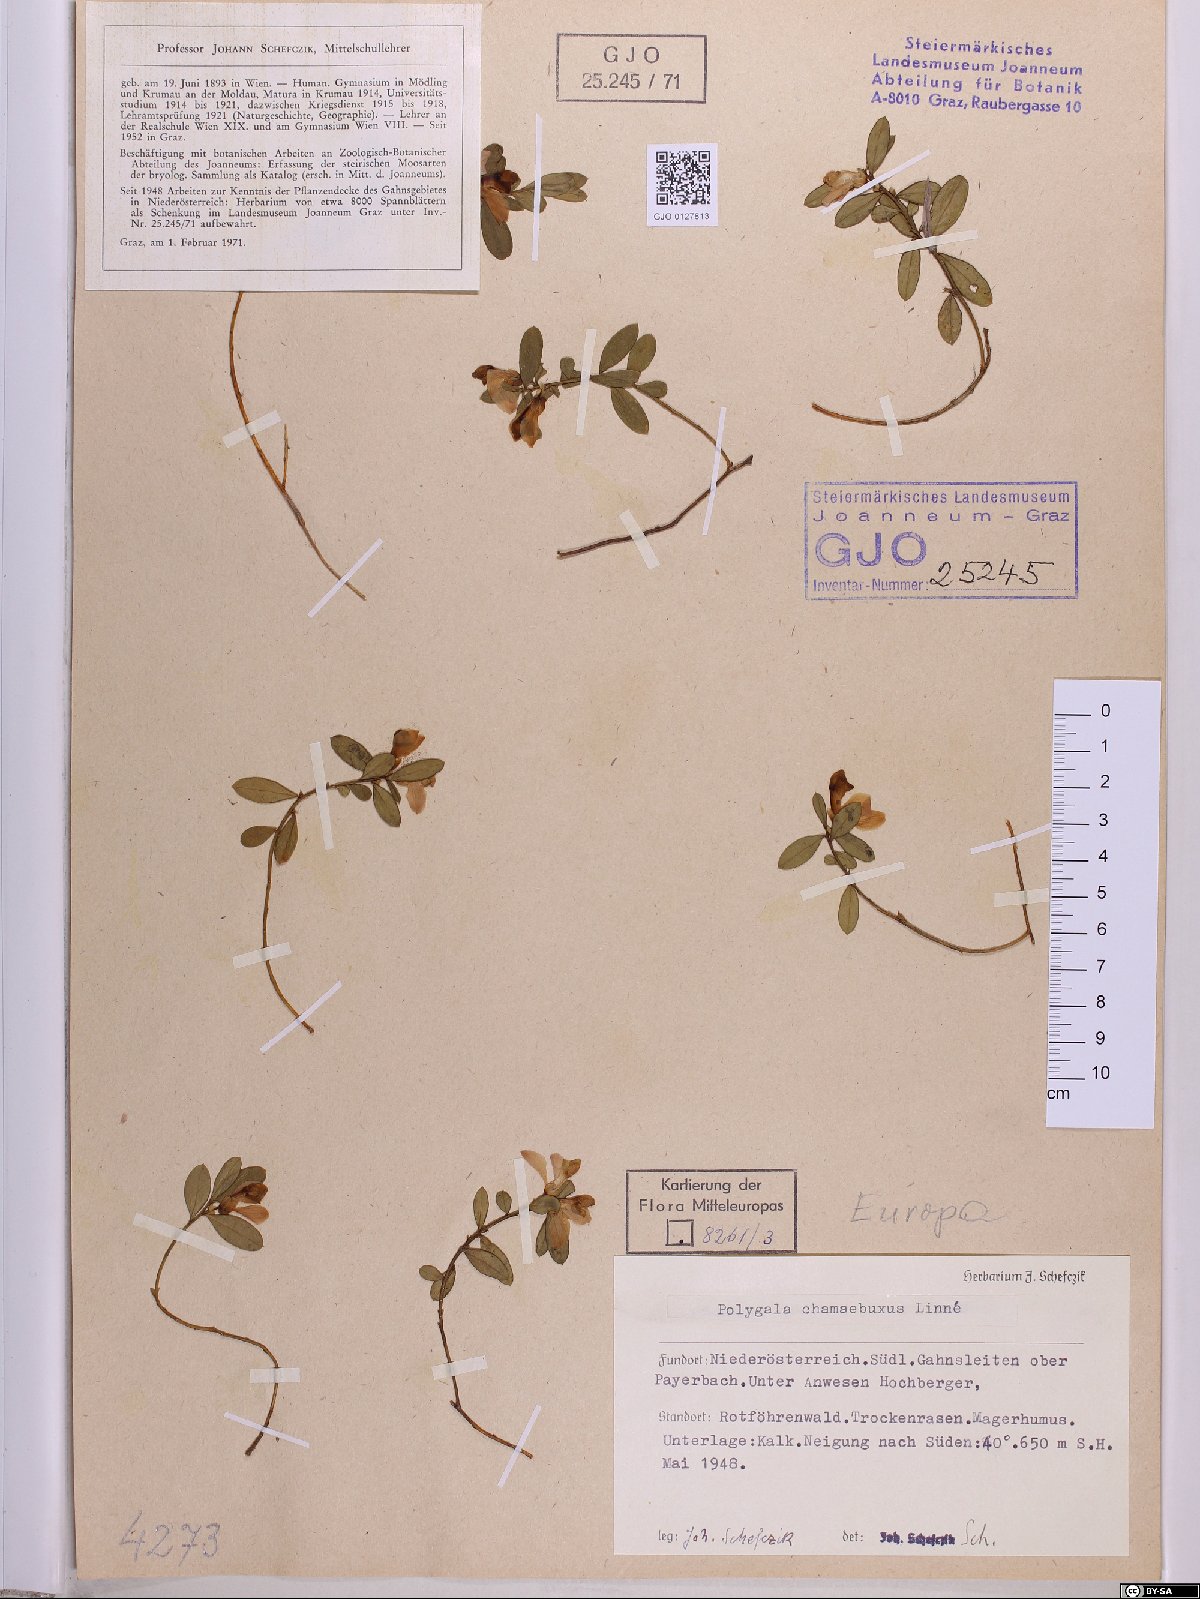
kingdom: Plantae
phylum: Tracheophyta
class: Magnoliopsida
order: Fabales
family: Polygalaceae
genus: Polygaloides
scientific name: Polygaloides chamaebuxus
